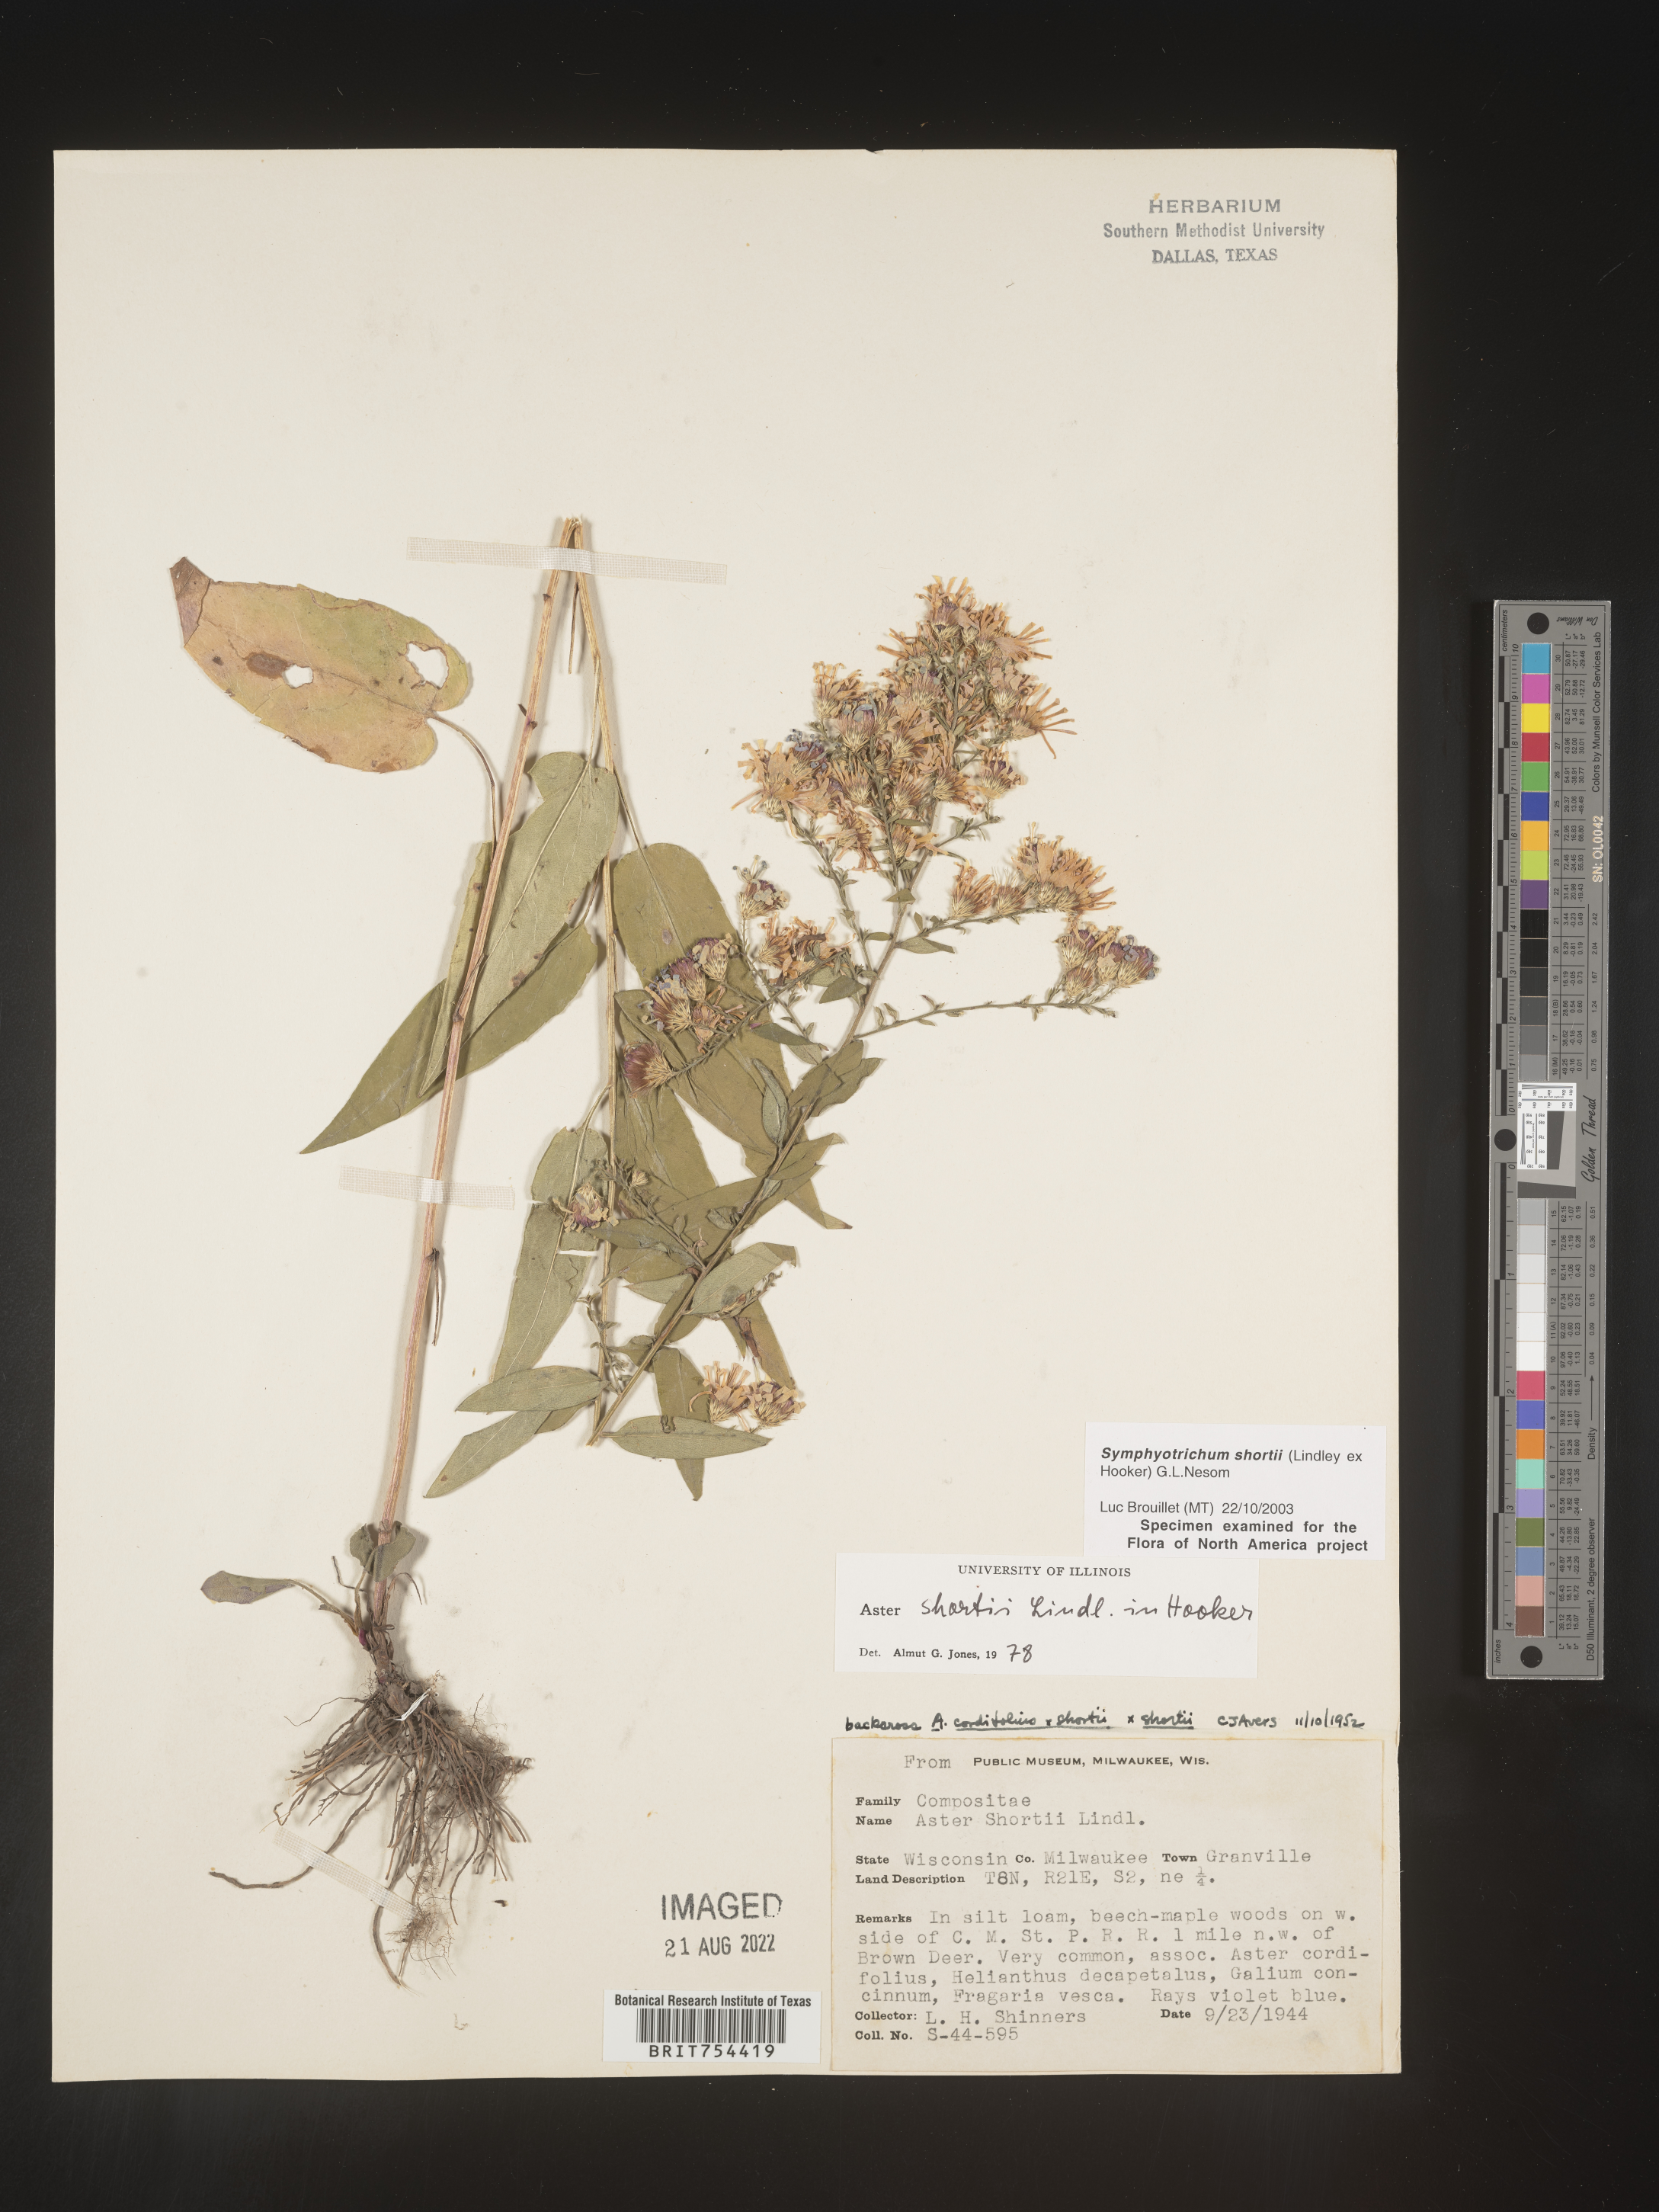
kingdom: Plantae
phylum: Tracheophyta
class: Magnoliopsida
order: Asterales
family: Asteraceae
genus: Symphyotrichum
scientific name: Symphyotrichum shortii
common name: Short's aster
